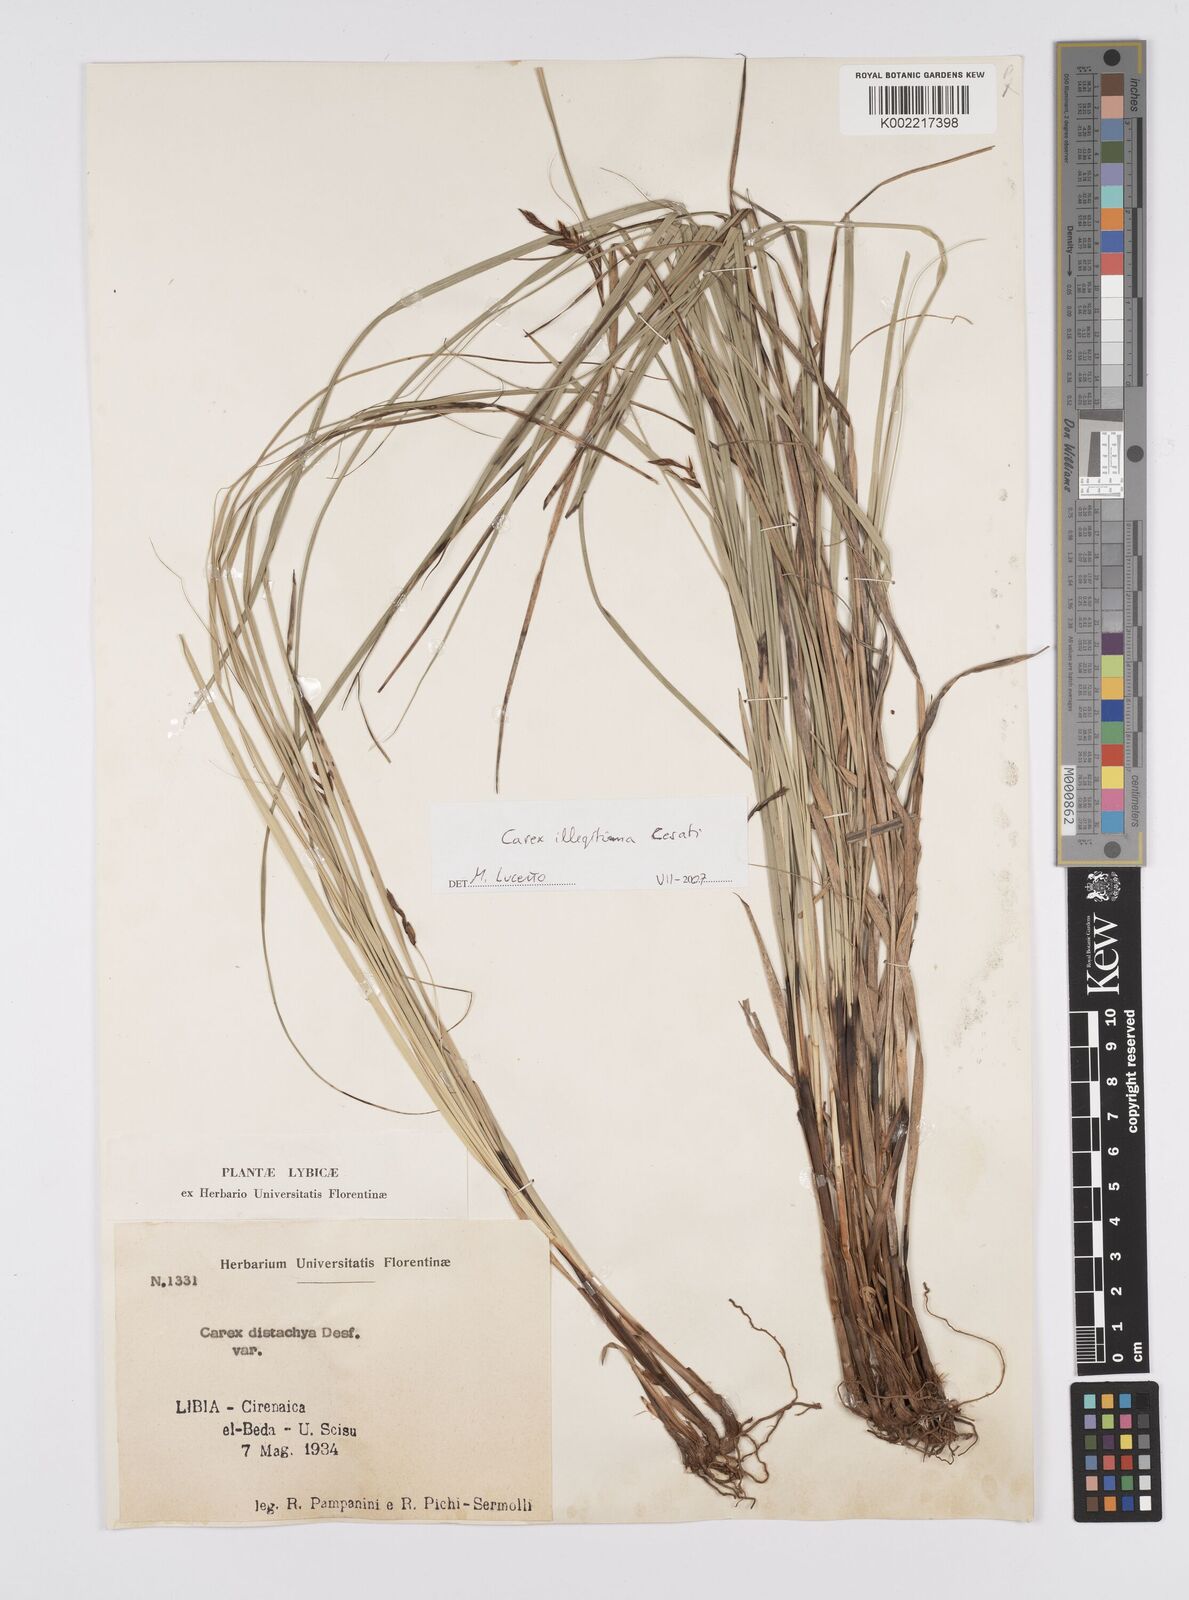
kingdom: Plantae
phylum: Tracheophyta
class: Liliopsida
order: Poales
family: Cyperaceae
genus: Carex
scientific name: Carex illegitima
